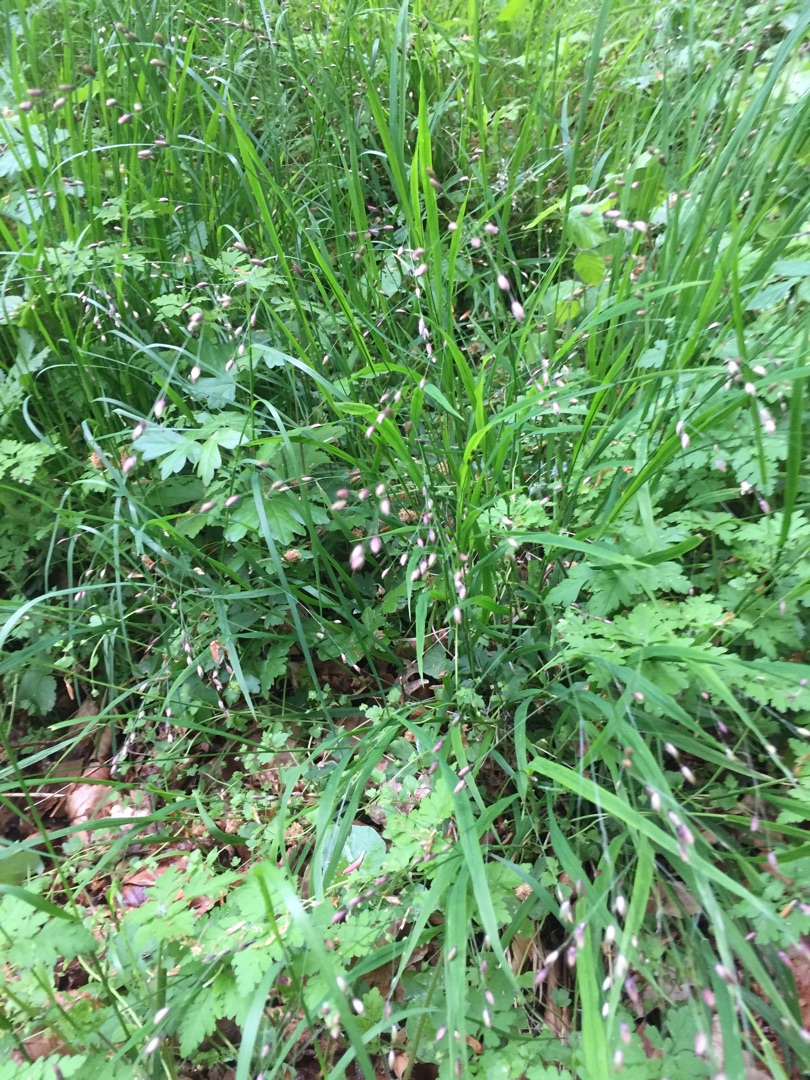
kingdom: Plantae
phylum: Tracheophyta
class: Liliopsida
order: Poales
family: Poaceae
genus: Melica
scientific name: Melica uniflora
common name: Enblomstret flitteraks
